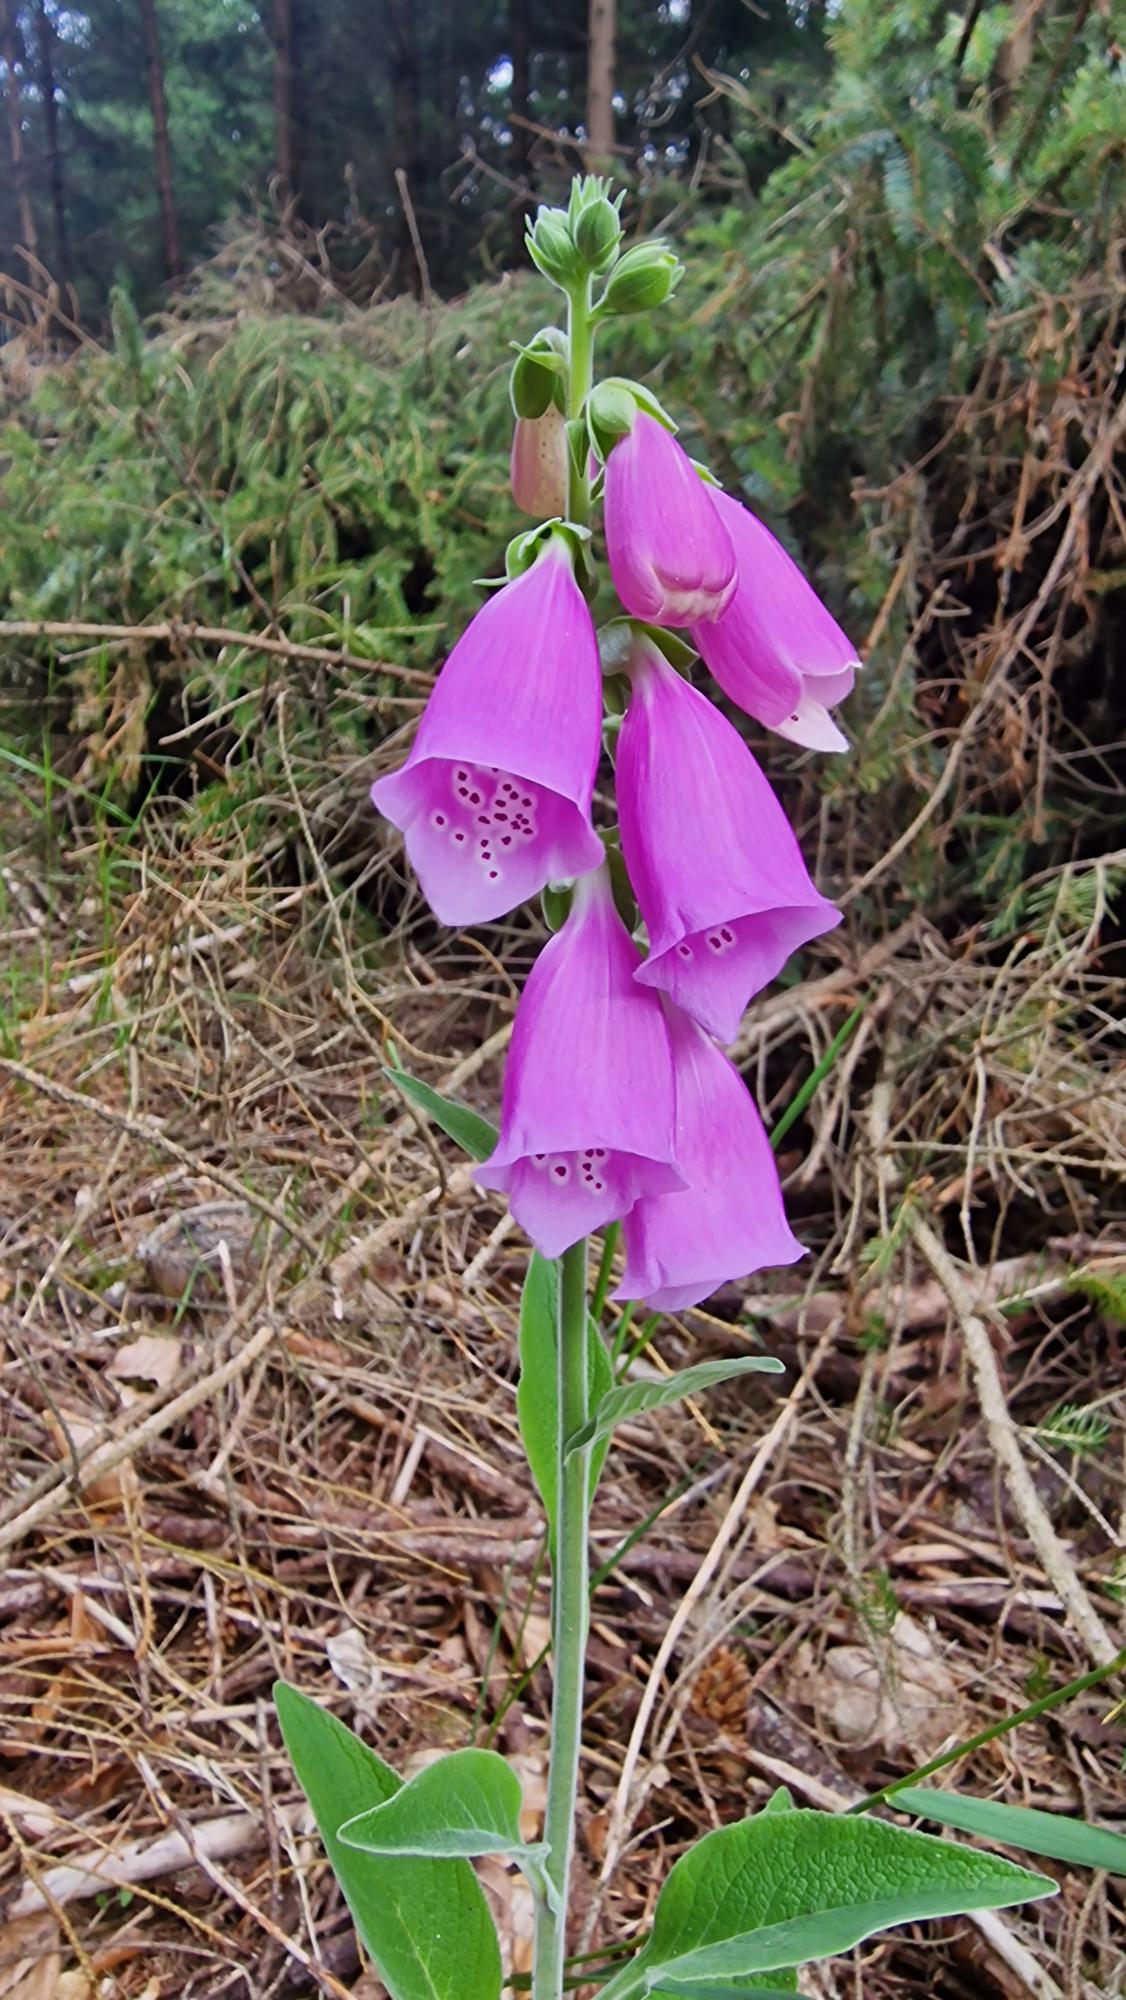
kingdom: Plantae
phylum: Tracheophyta
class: Magnoliopsida
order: Lamiales
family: Plantaginaceae
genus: Digitalis
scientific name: Digitalis purpurea
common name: Almindelig fingerbøl
